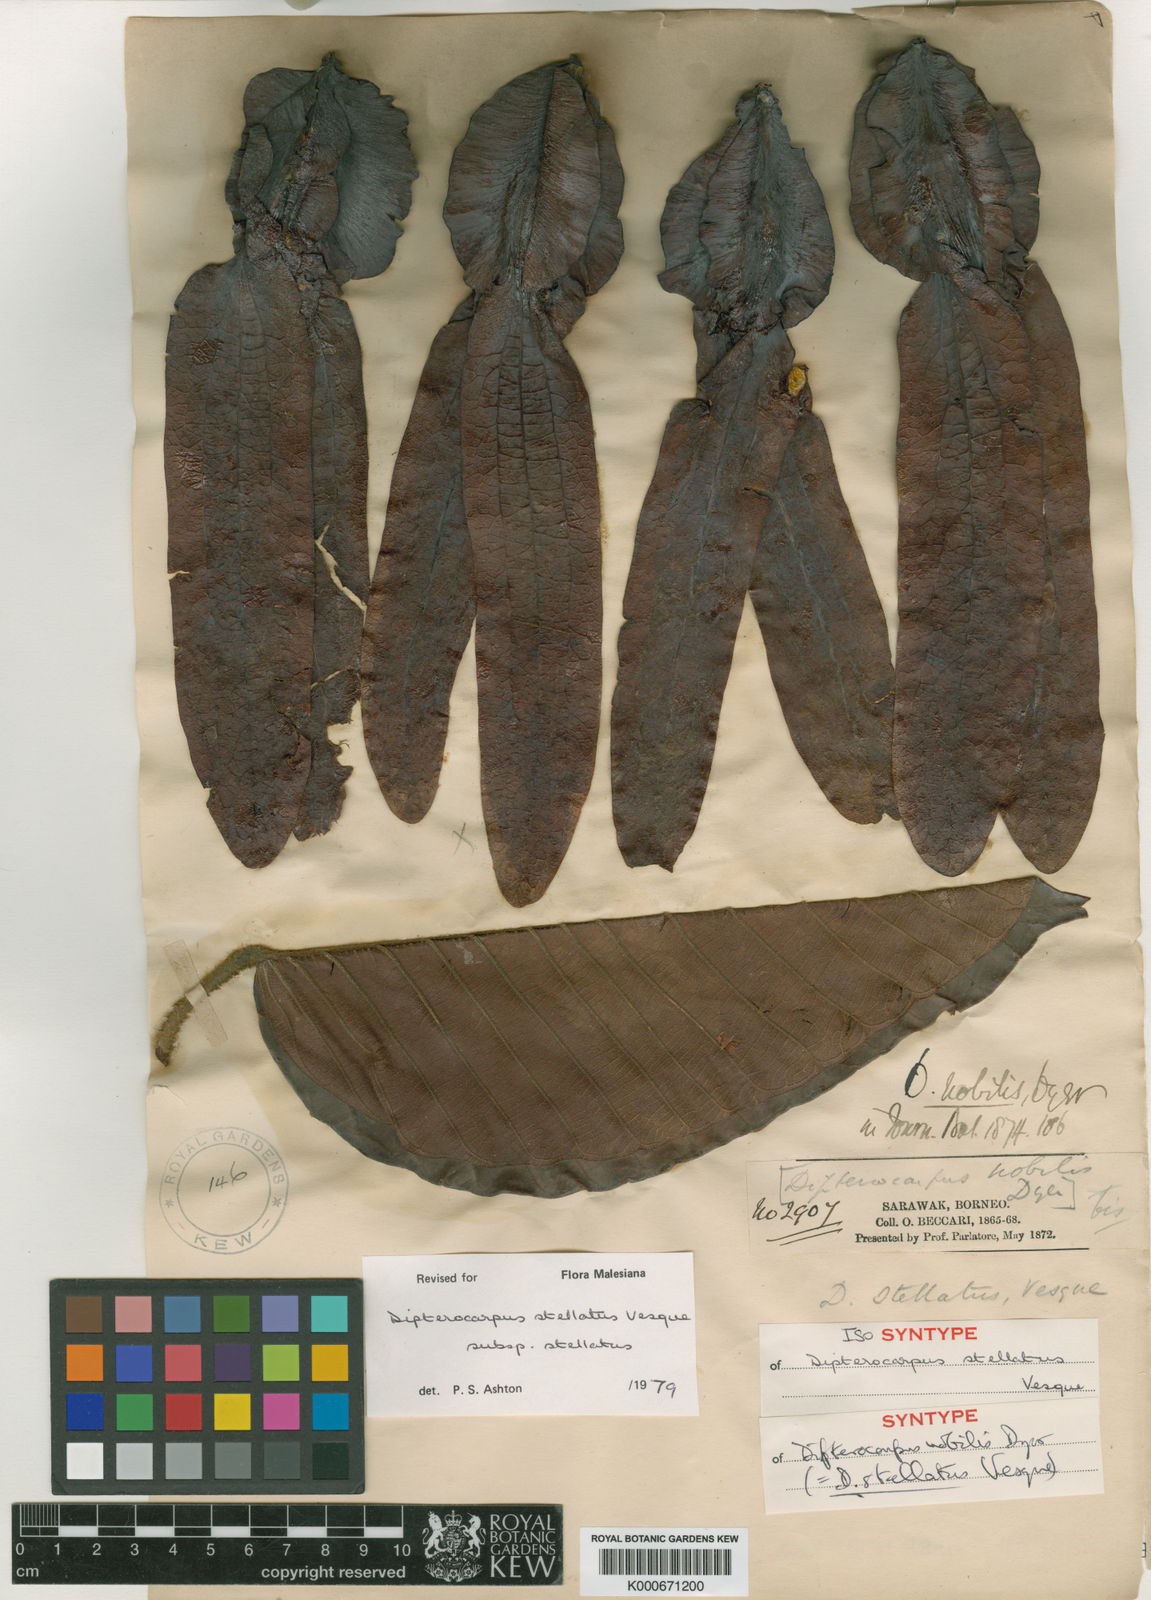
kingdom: Plantae
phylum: Tracheophyta
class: Magnoliopsida
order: Malvales
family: Dipterocarpaceae
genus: Dipterocarpus
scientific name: Dipterocarpus stellatus
